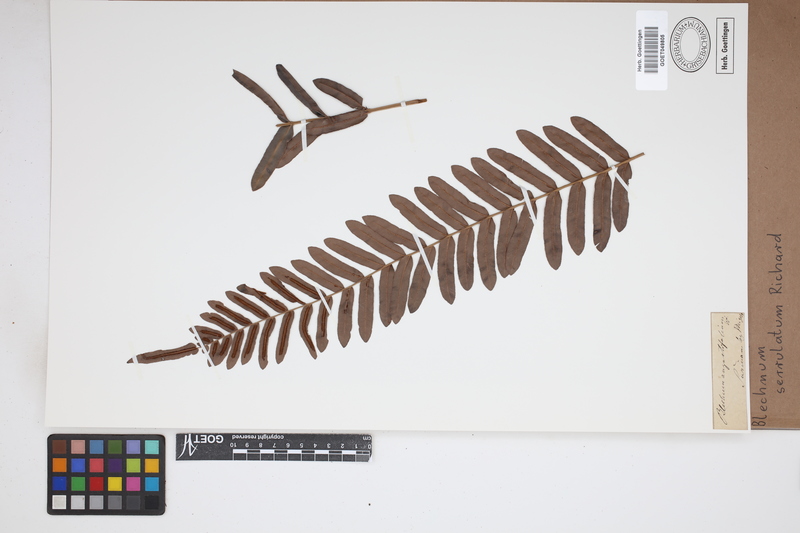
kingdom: Plantae
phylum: Tracheophyta
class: Polypodiopsida
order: Polypodiales
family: Blechnaceae
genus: Telmatoblechnum
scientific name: Telmatoblechnum serrulatum
